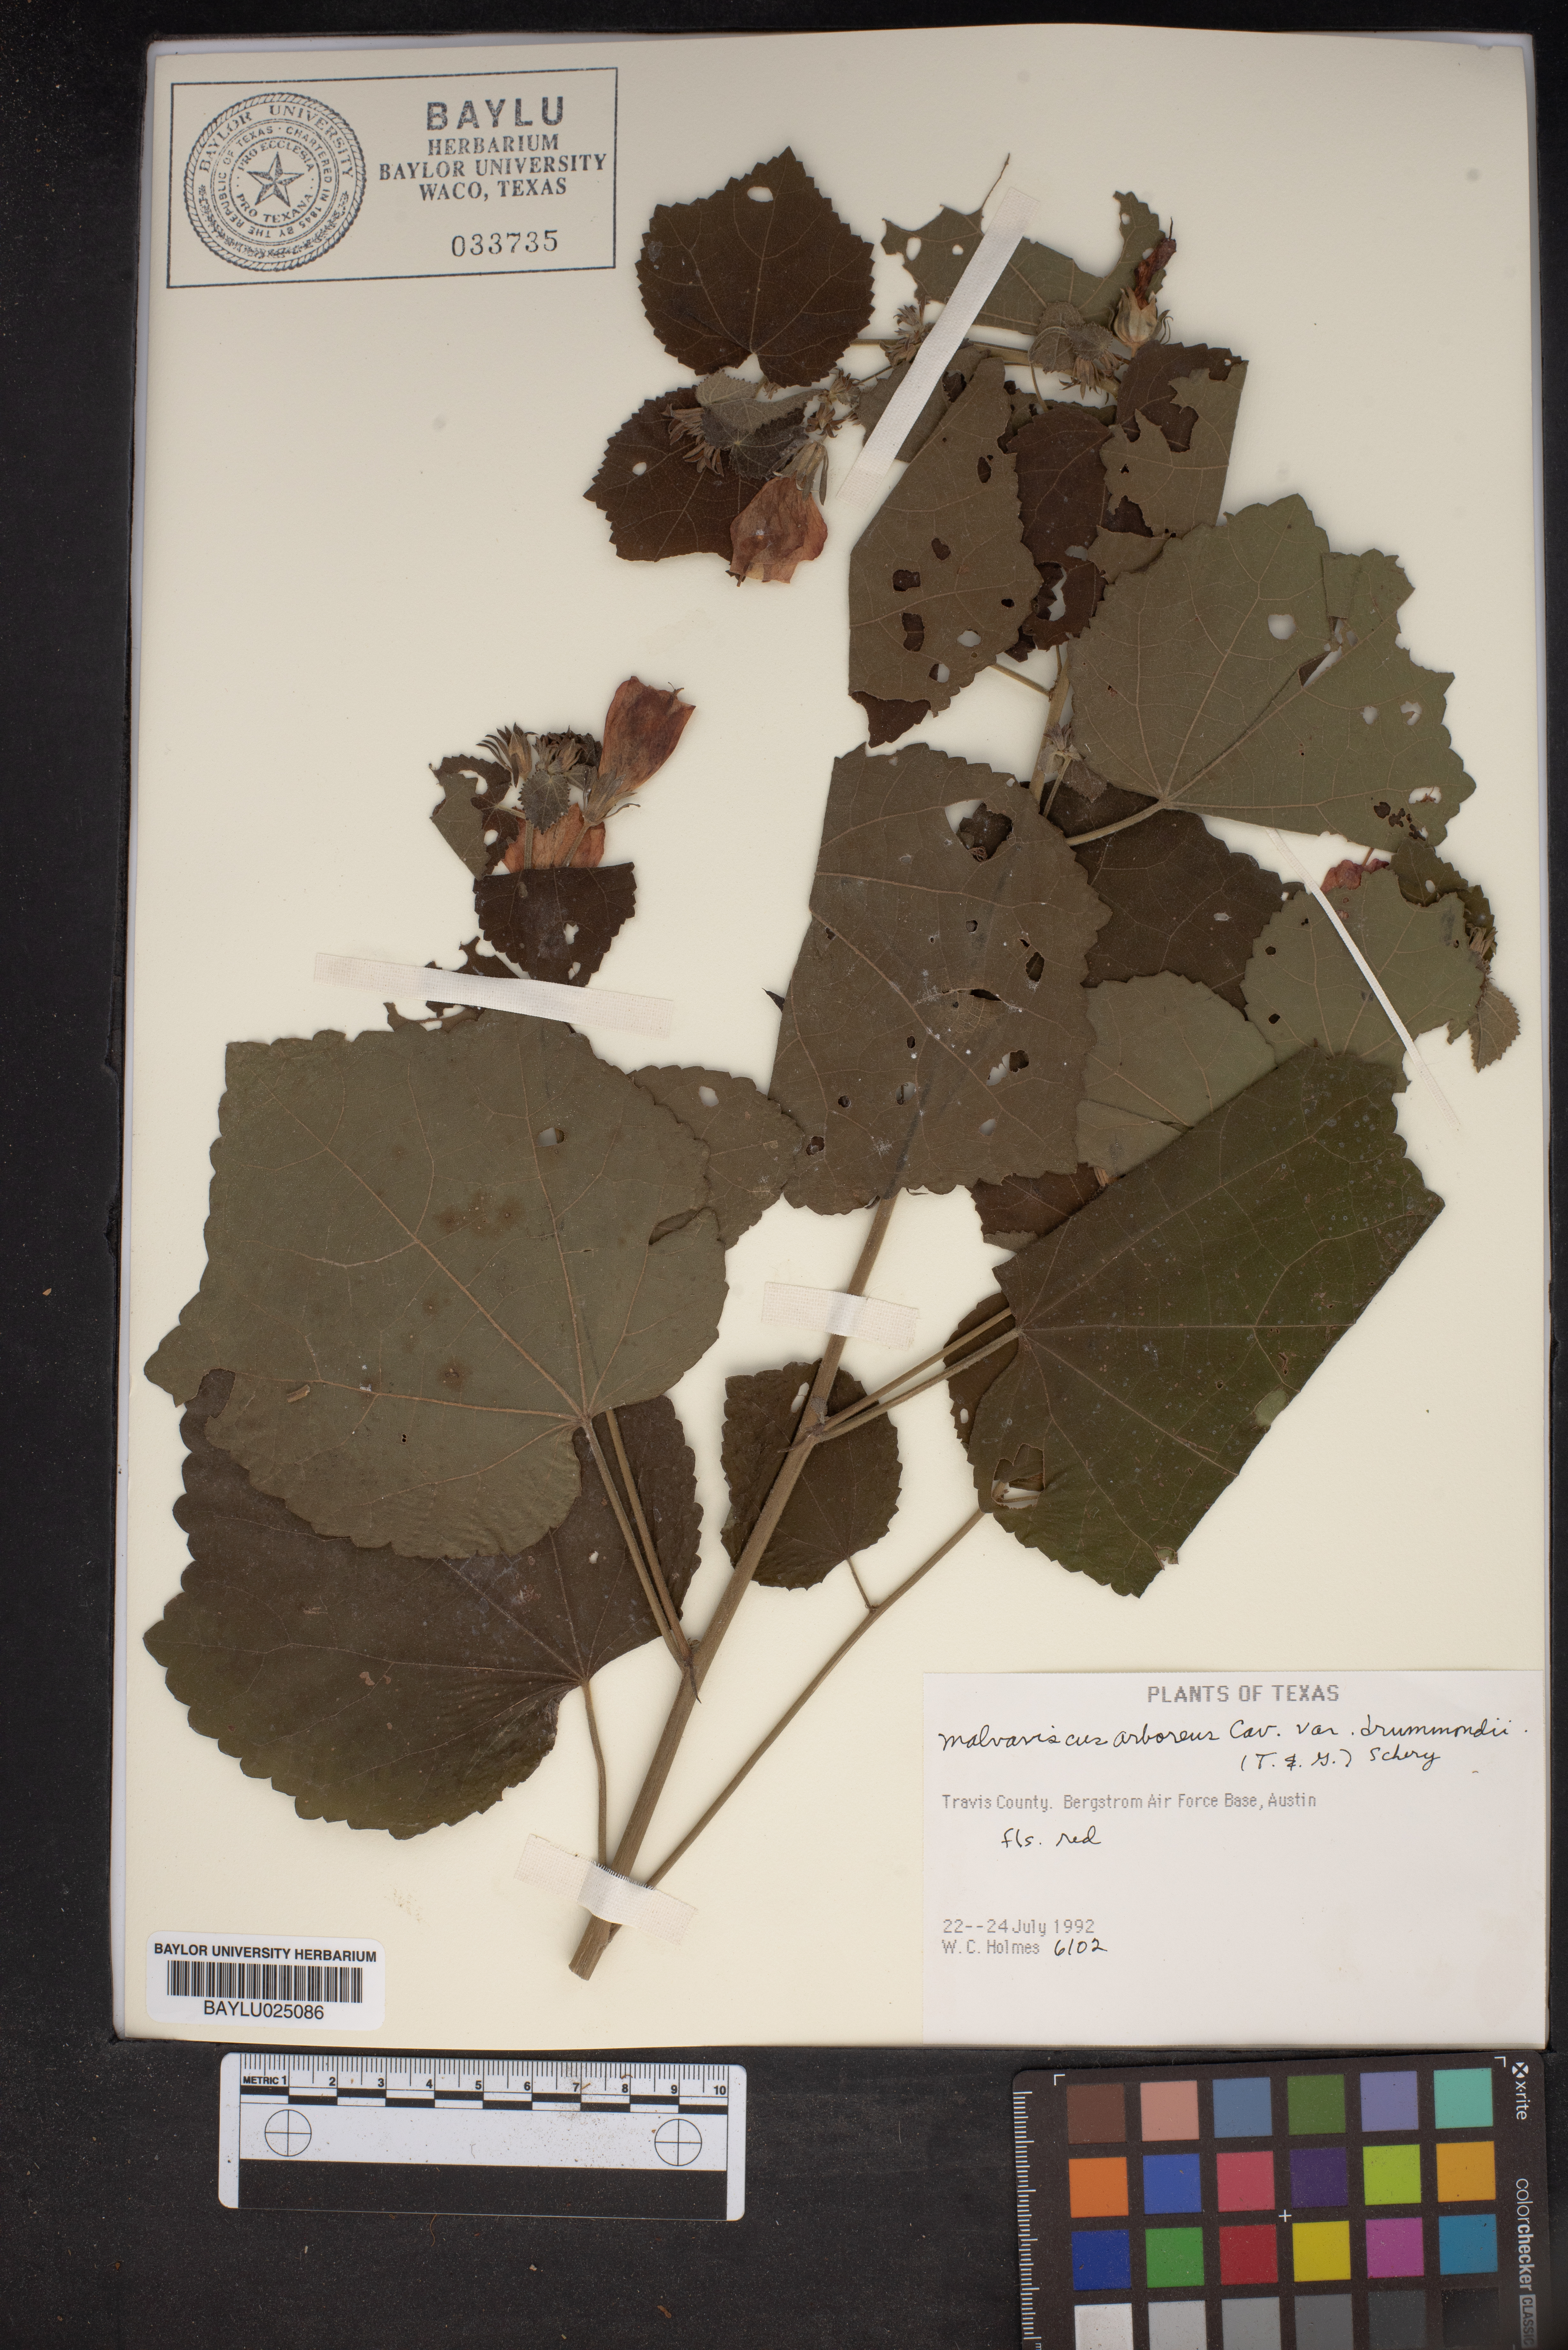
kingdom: Plantae
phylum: Tracheophyta
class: Magnoliopsida
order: Malvales
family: Malvaceae
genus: Malvaviscus
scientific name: Malvaviscus arboreus
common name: Wax mallow
